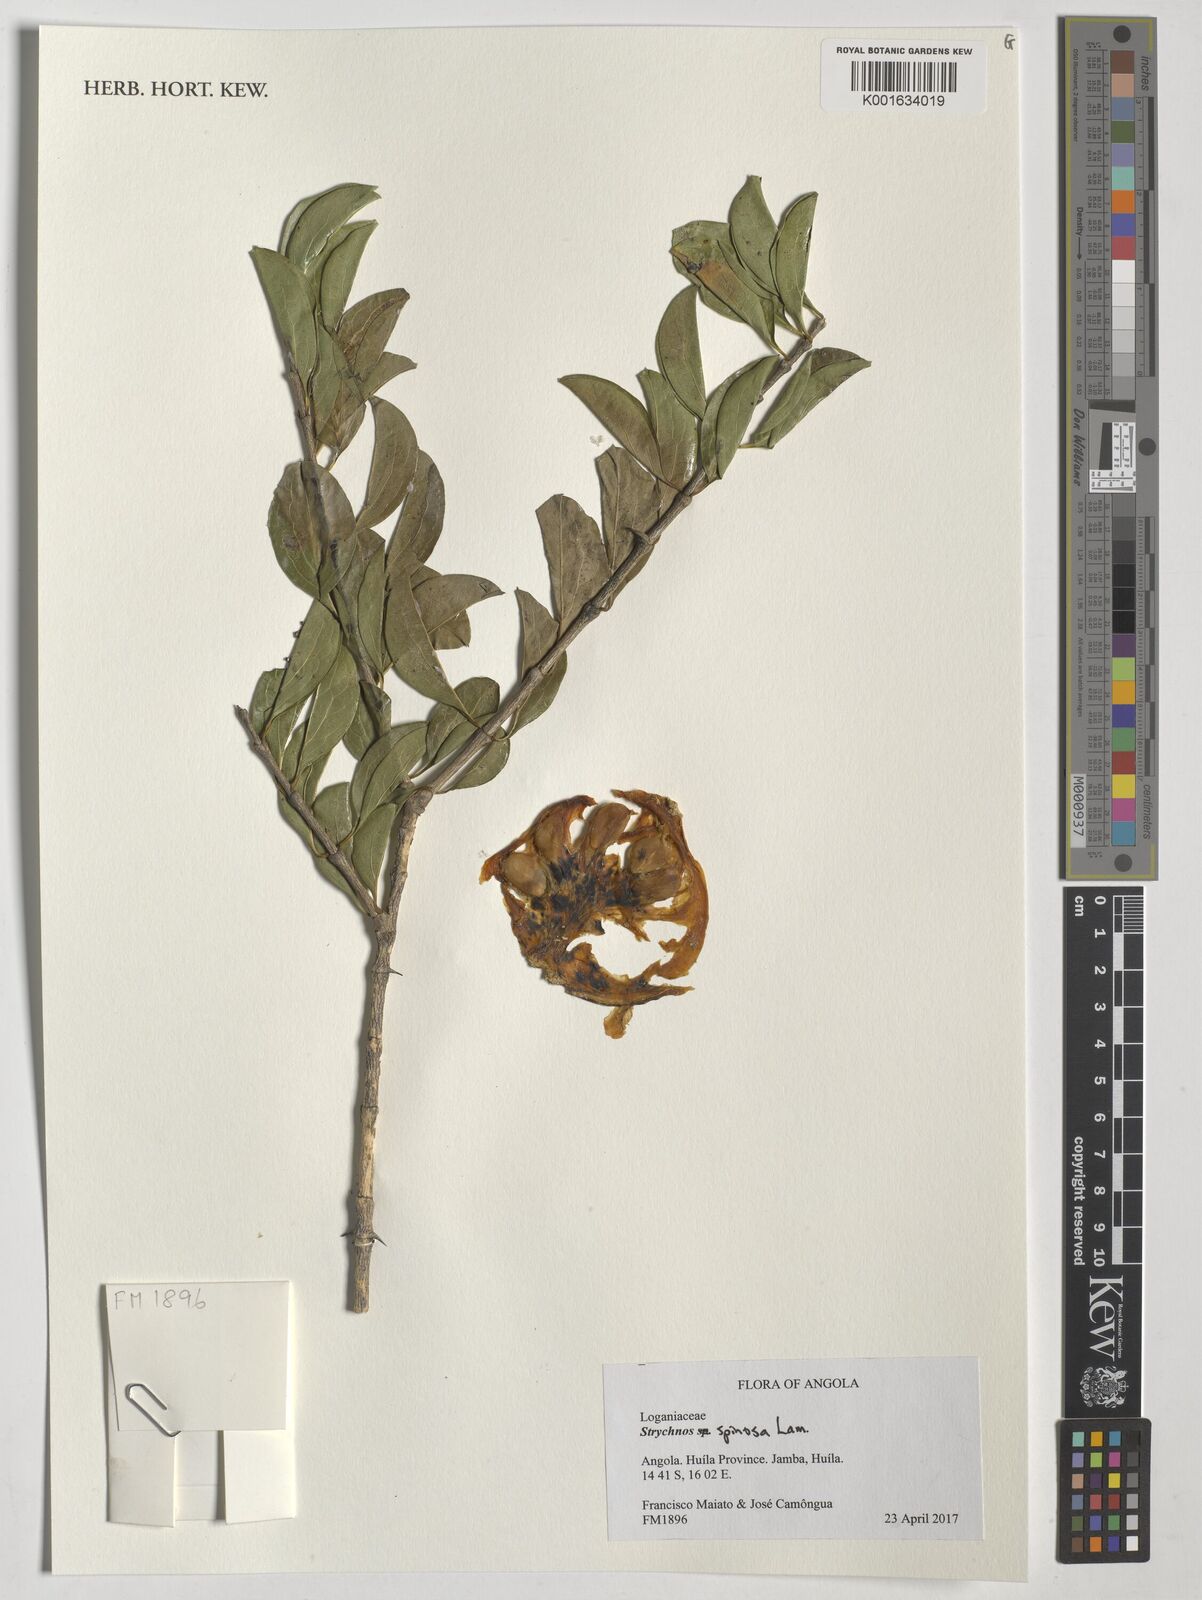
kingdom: Plantae
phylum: Tracheophyta
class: Magnoliopsida
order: Gentianales
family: Loganiaceae
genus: Strychnos
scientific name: Strychnos spinosa
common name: Natal orange
